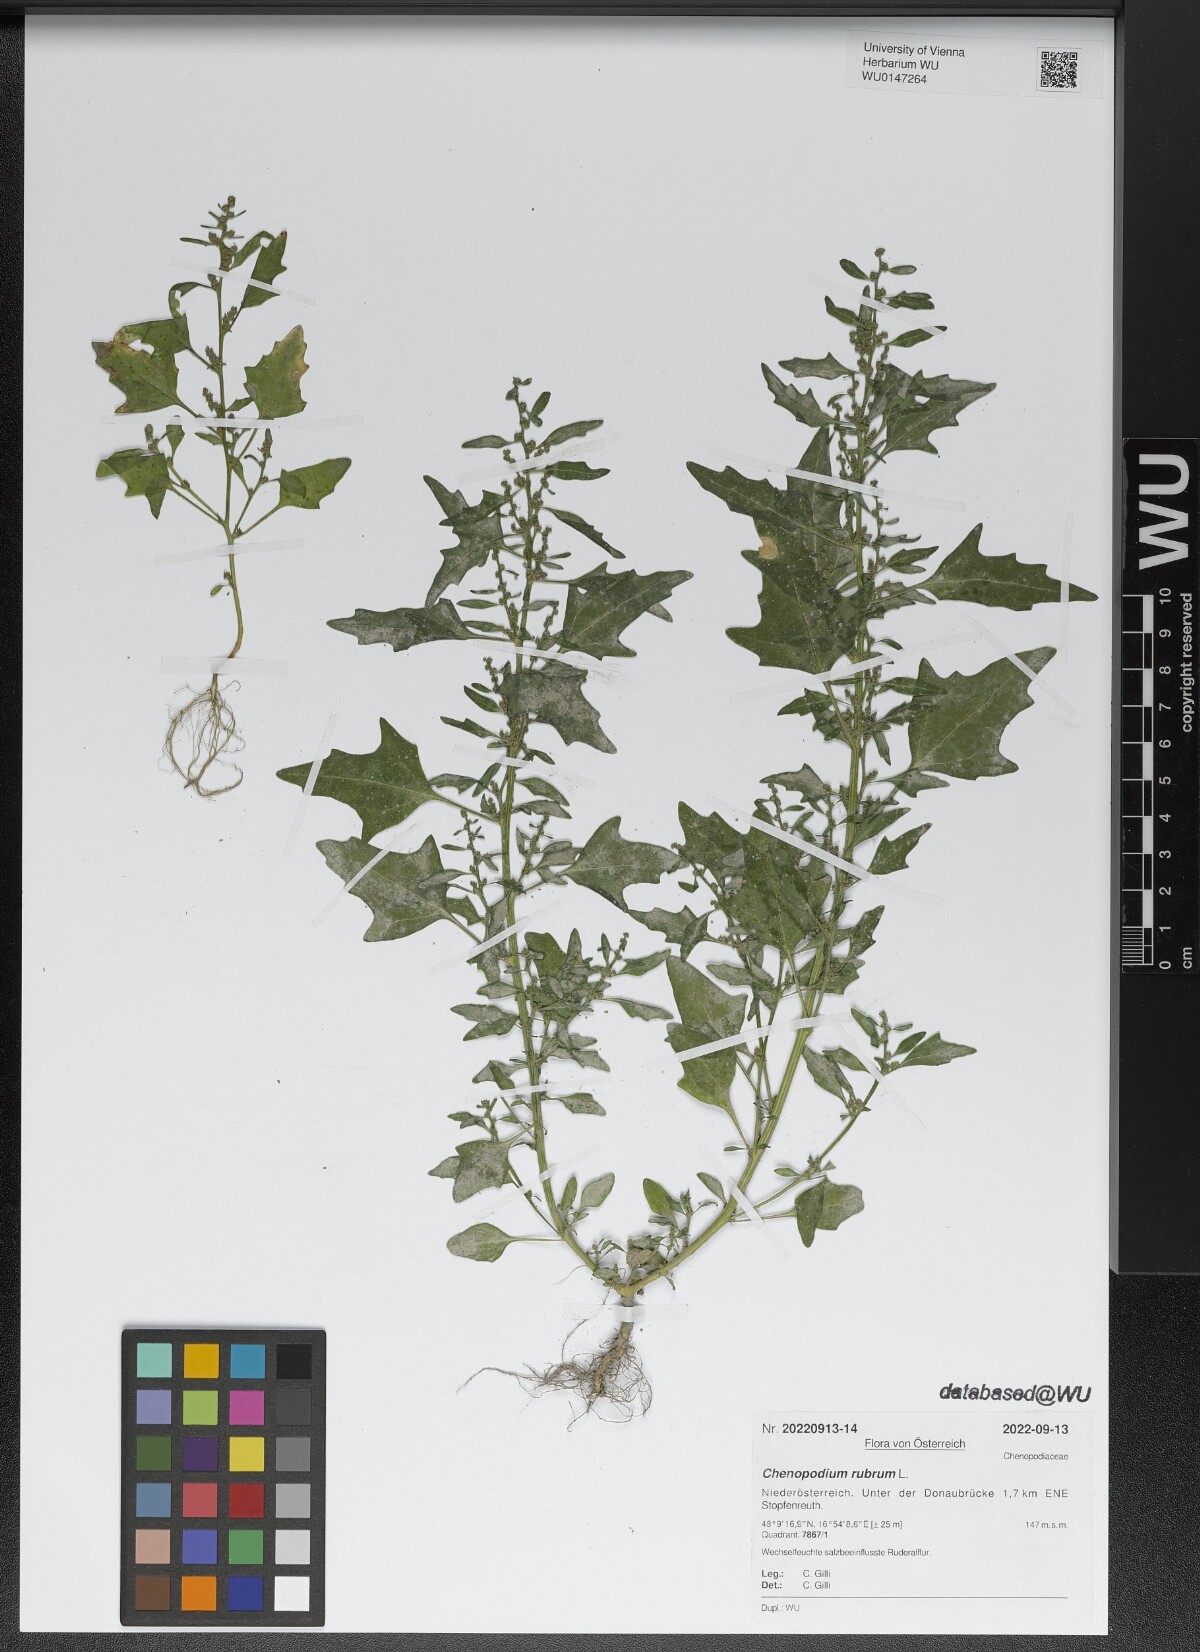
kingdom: Plantae
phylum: Tracheophyta
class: Magnoliopsida
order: Caryophyllales
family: Amaranthaceae
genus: Oxybasis
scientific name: Oxybasis rubra
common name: Red goosefoot
